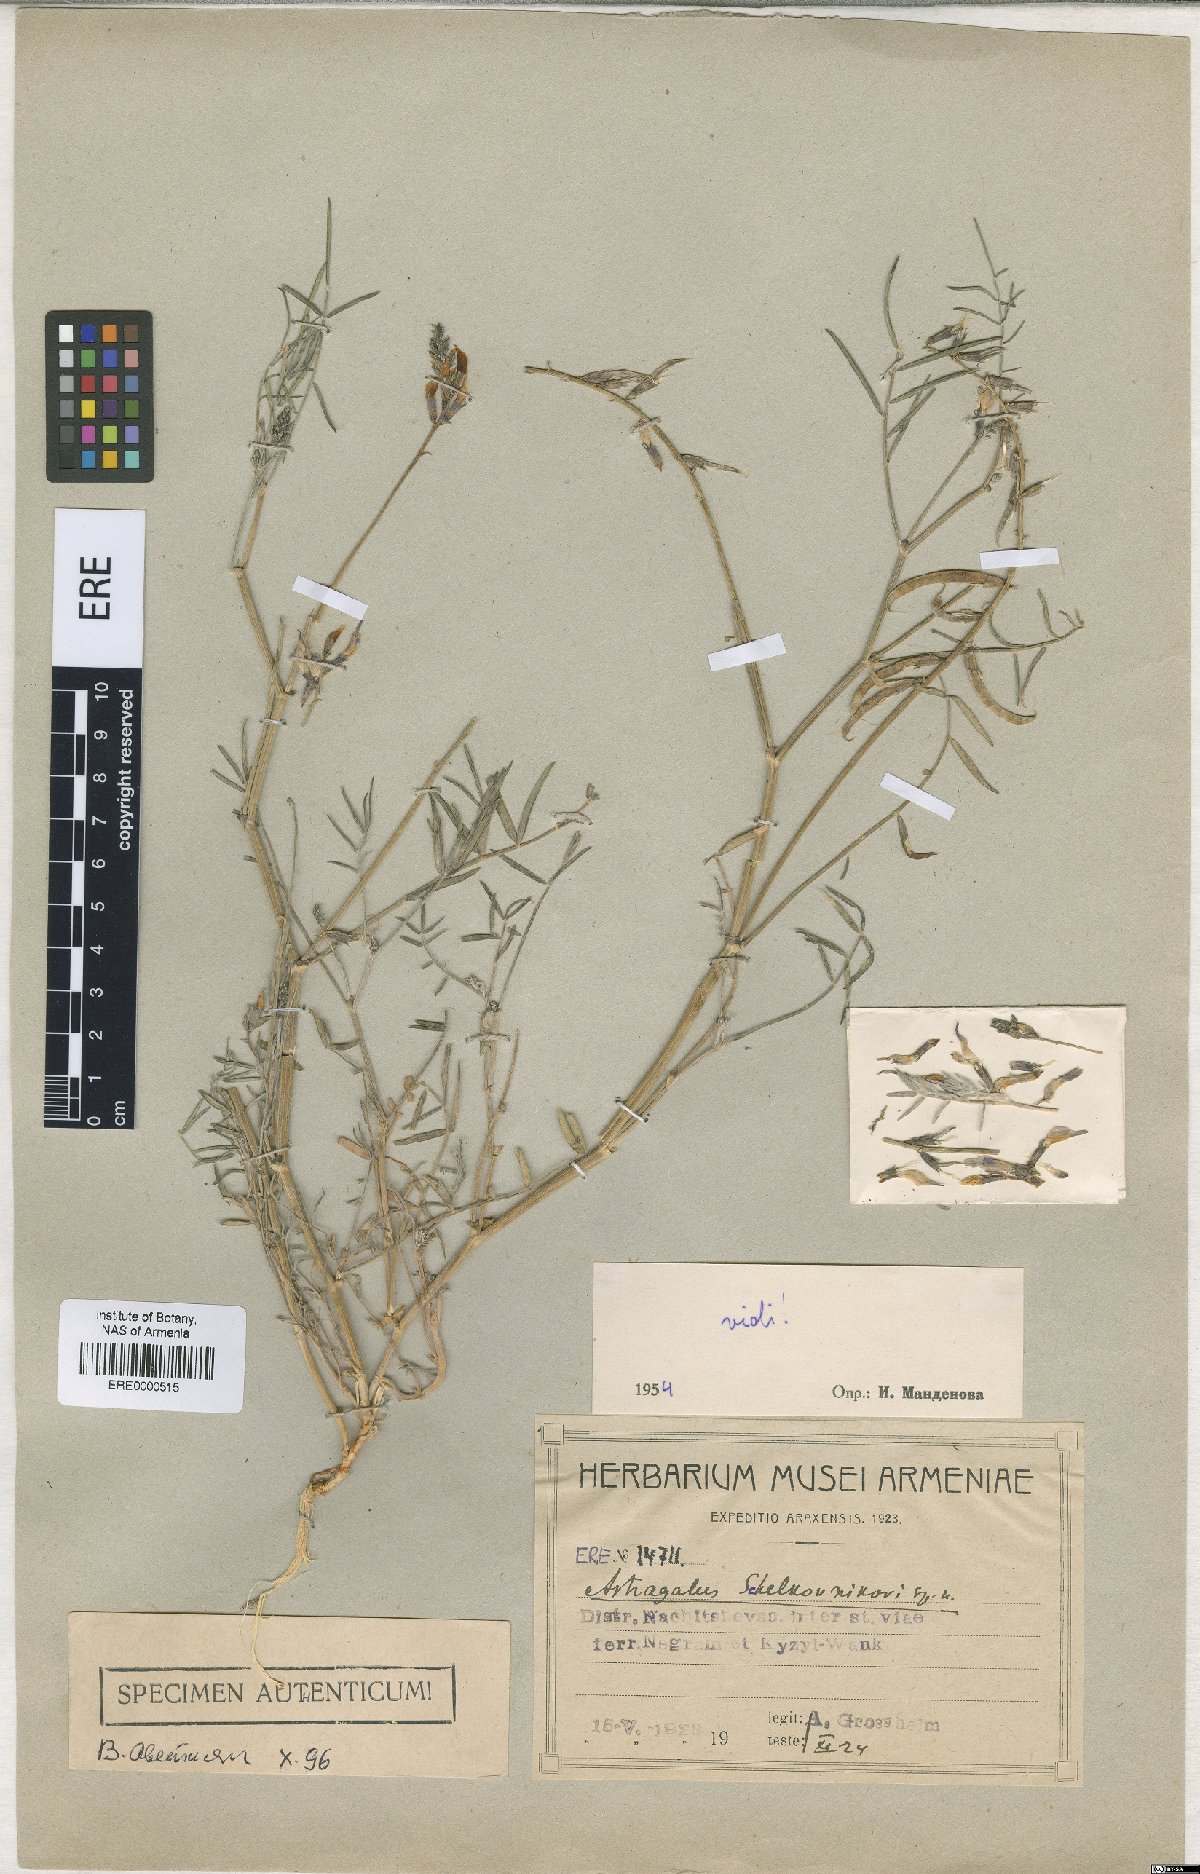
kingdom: Plantae
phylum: Tracheophyta
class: Magnoliopsida
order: Fabales
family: Fabaceae
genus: Astragalus
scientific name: Astragalus shelkovnikovii
